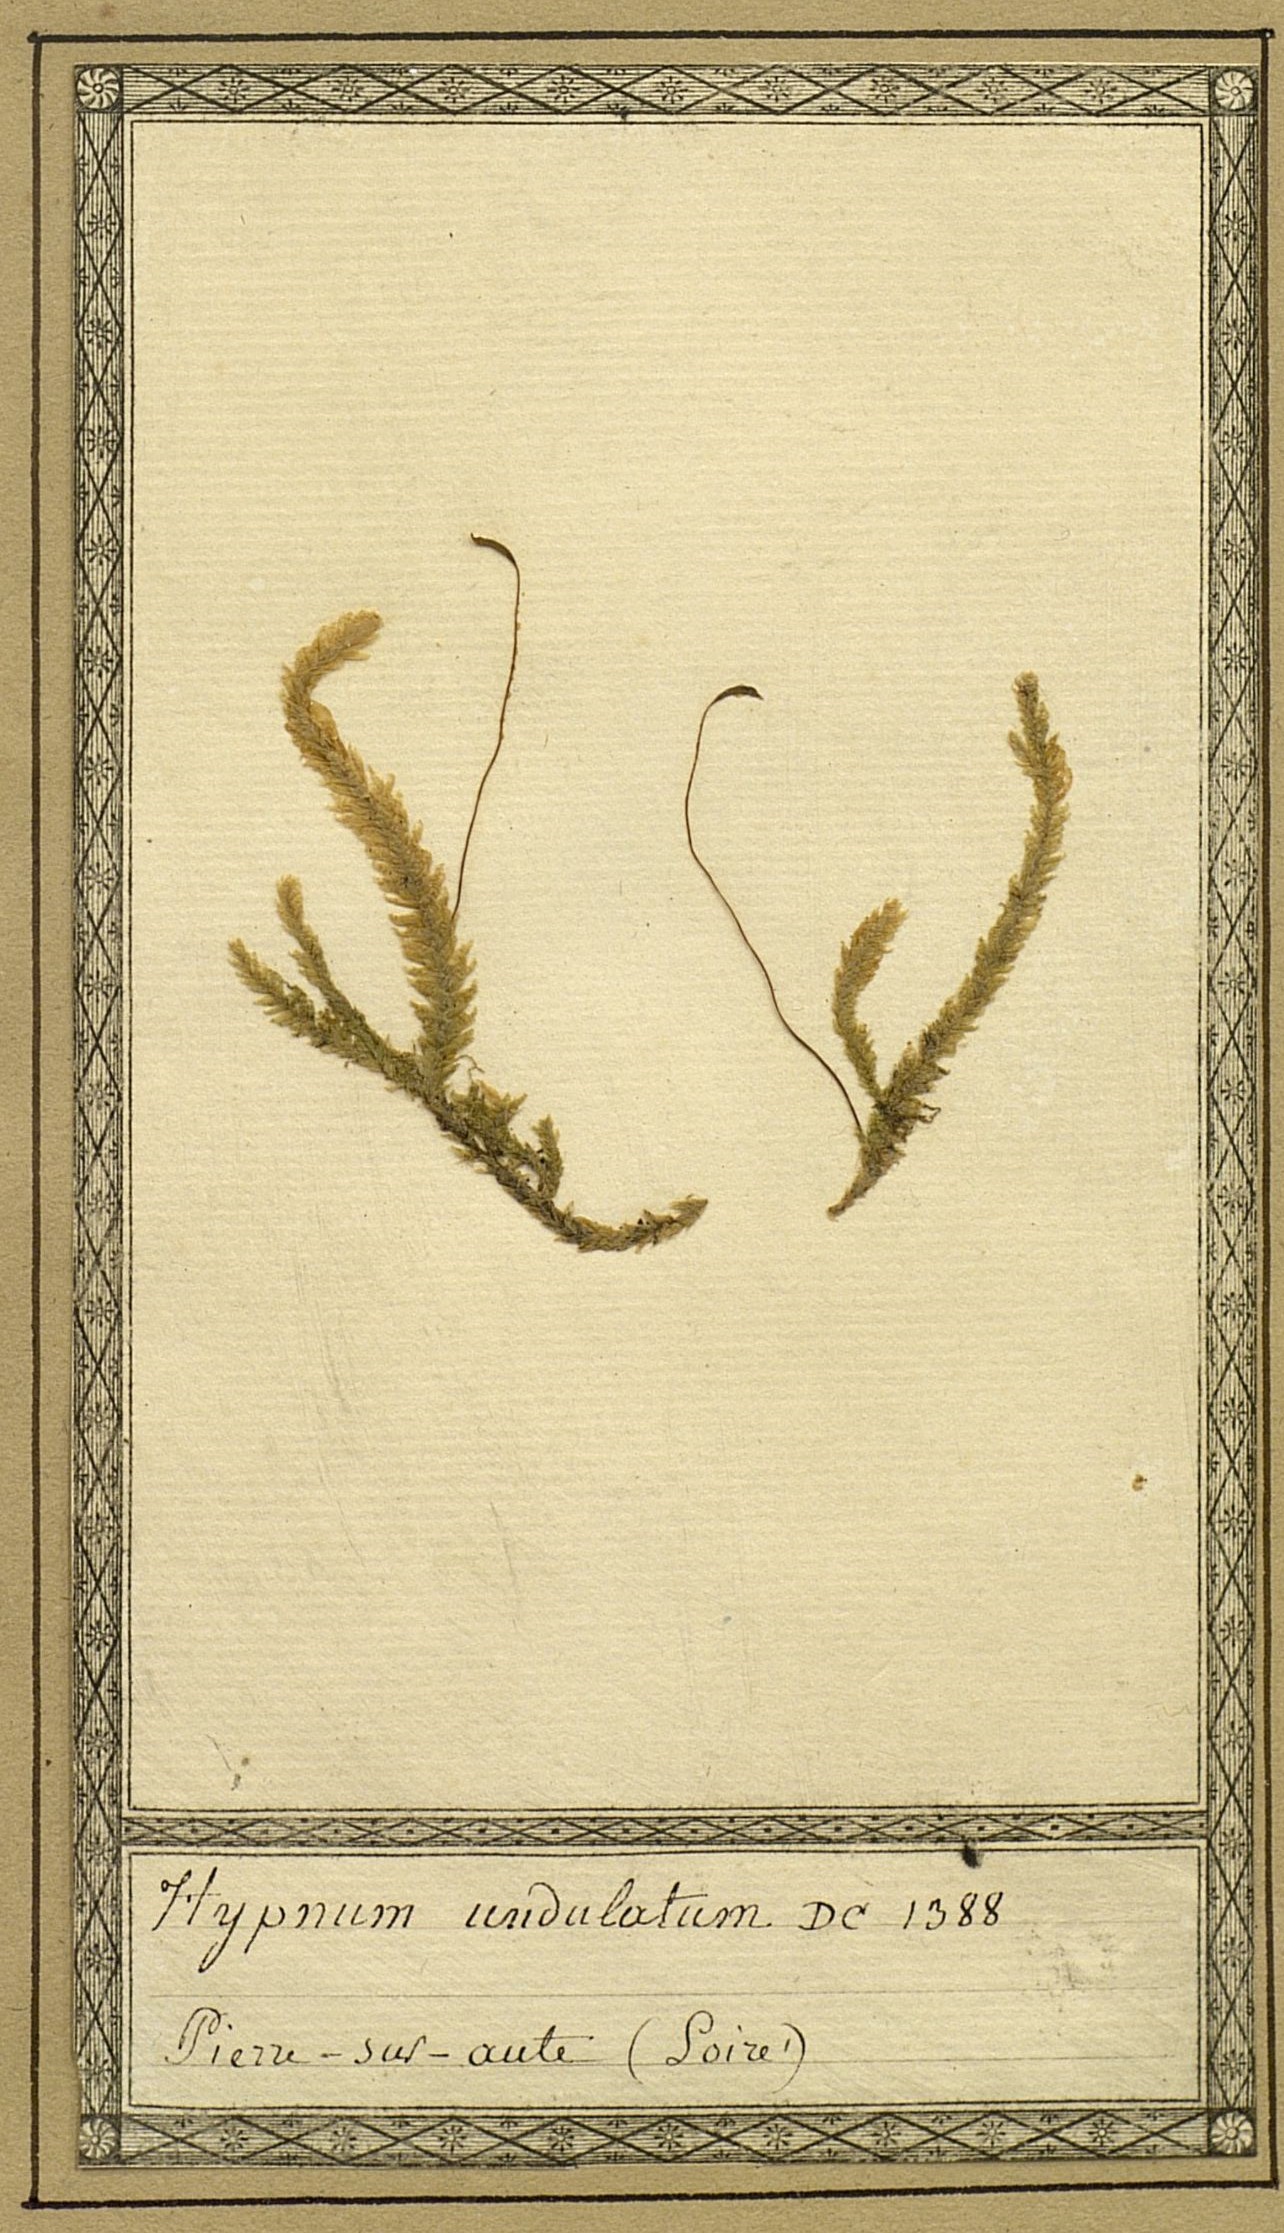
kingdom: Plantae
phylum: Bryophyta
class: Bryopsida
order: Hypnales
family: Plagiotheciaceae
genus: Plagiothecium
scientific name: Plagiothecium undulatum
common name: Waved silk-moss
